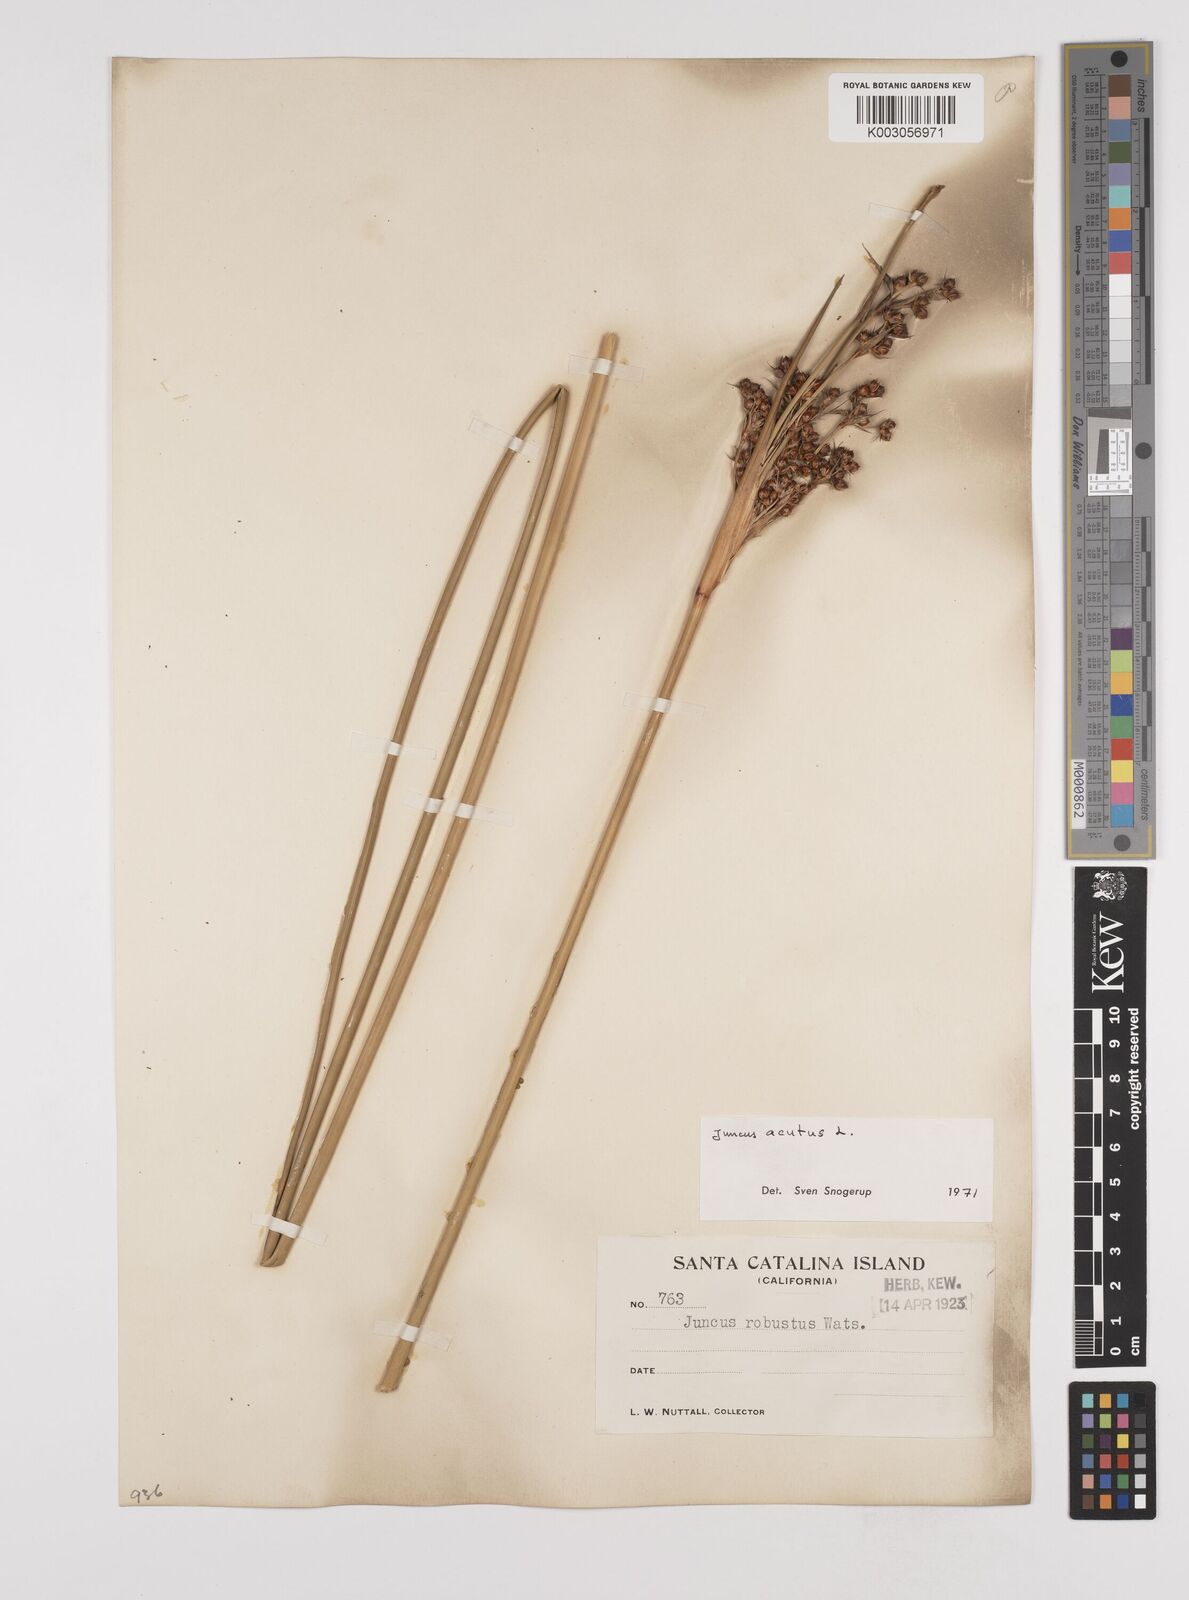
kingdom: Plantae
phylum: Tracheophyta
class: Liliopsida
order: Poales
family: Juncaceae
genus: Juncus
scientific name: Juncus acutus
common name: Sharp rush
